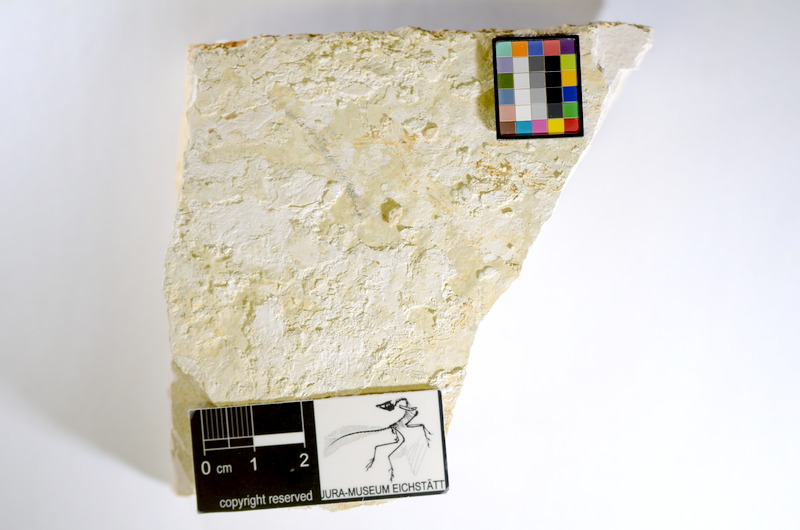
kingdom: Animalia
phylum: Chordata
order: Salmoniformes
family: Orthogonikleithridae
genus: Orthogonikleithrus
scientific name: Orthogonikleithrus hoelli
